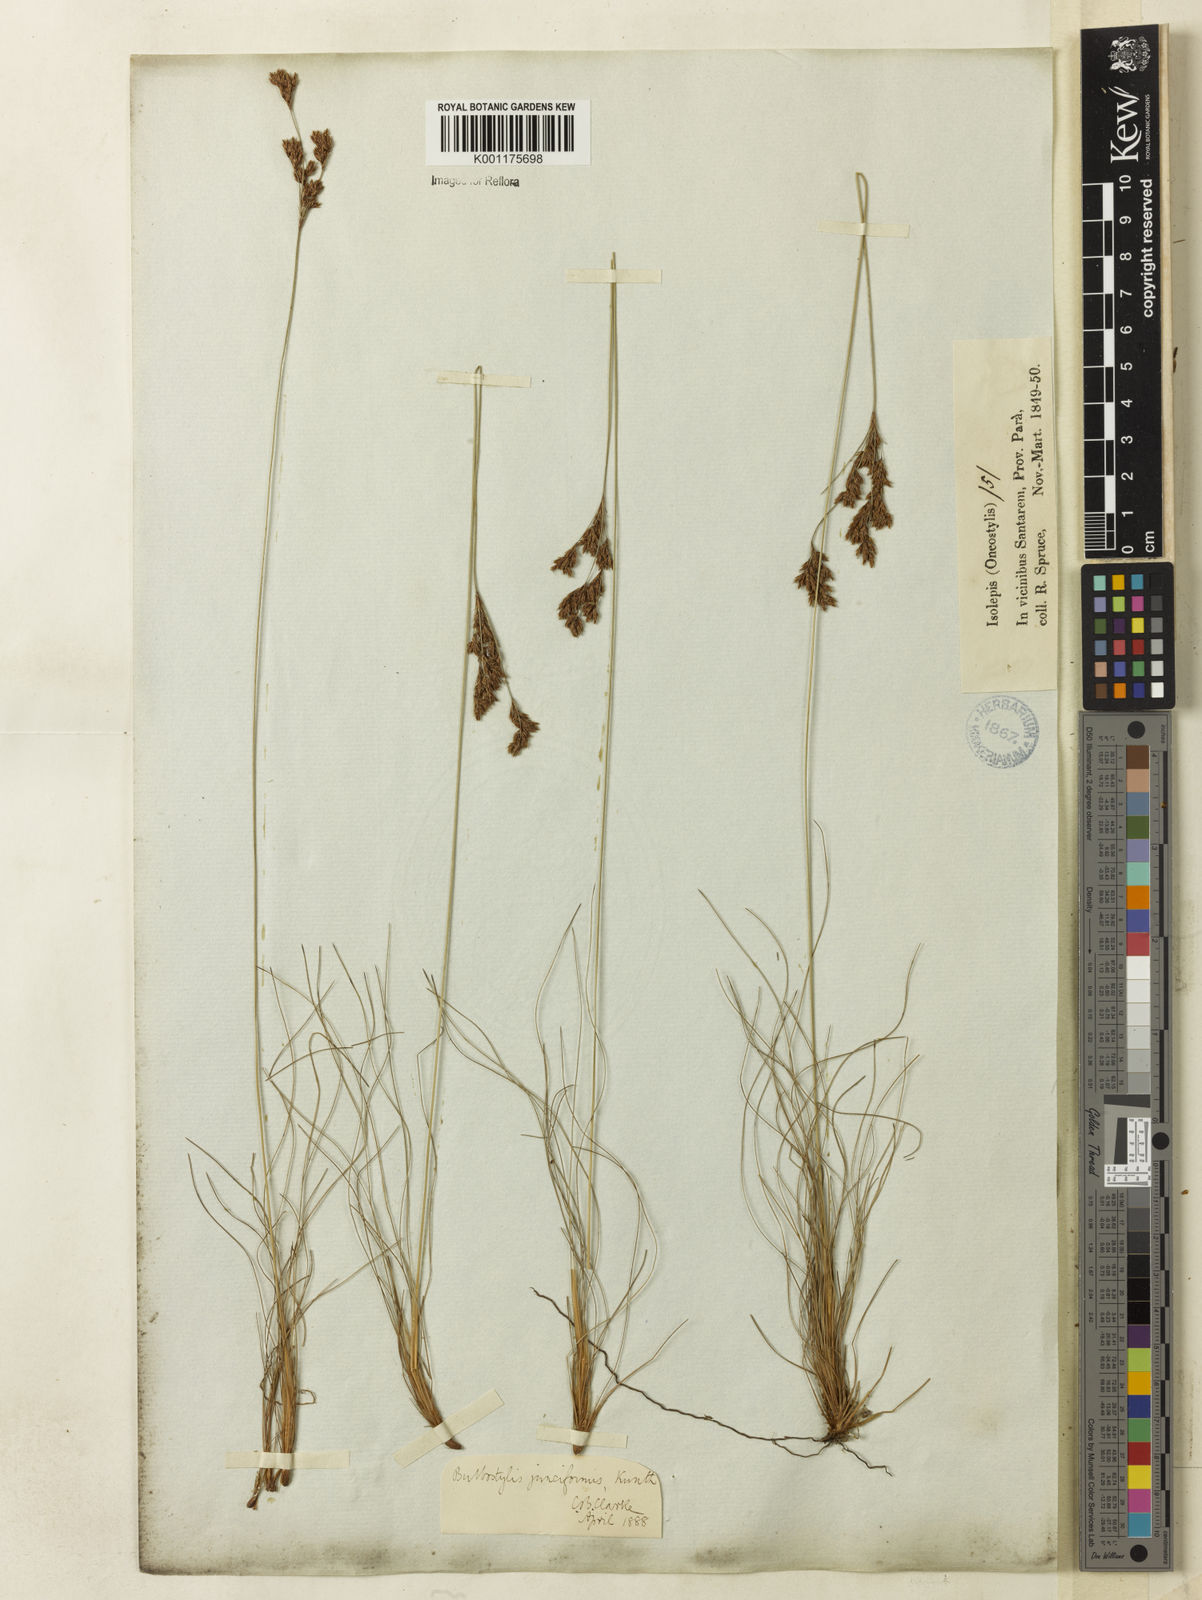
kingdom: Plantae
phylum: Tracheophyta
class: Liliopsida
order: Poales
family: Cyperaceae
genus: Bulbostylis
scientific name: Bulbostylis junciformis
